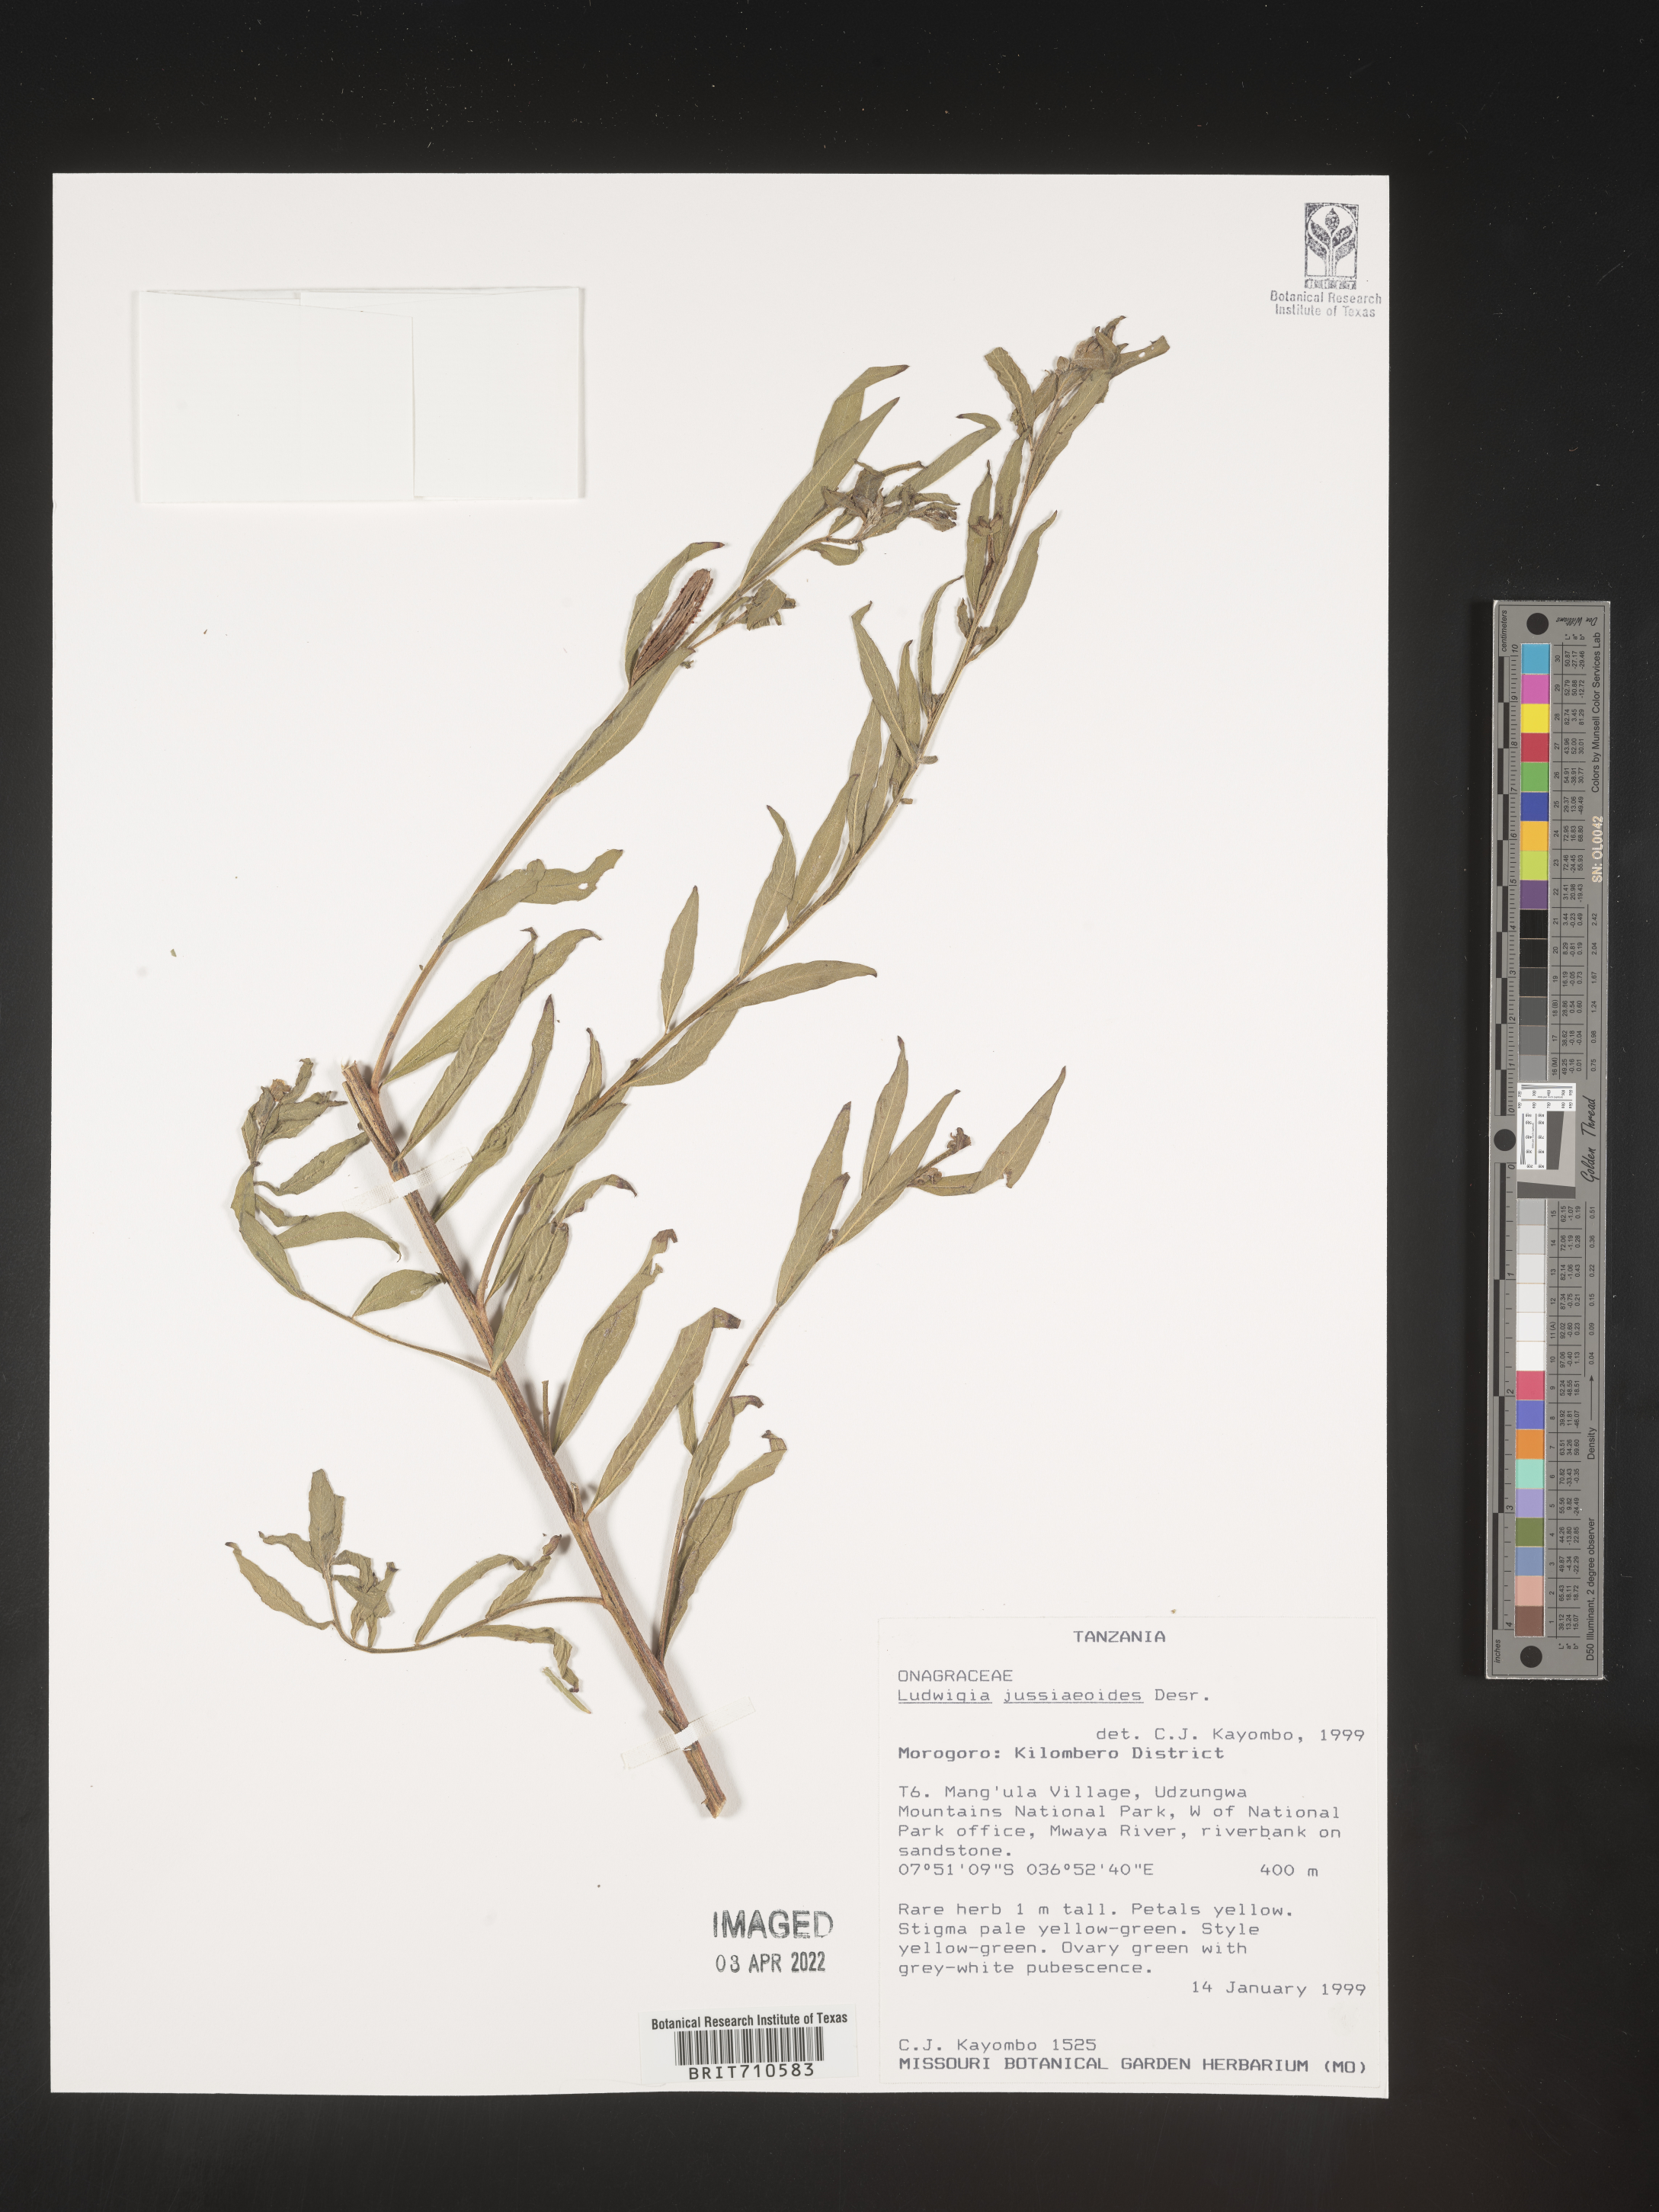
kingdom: Plantae
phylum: Tracheophyta
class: Magnoliopsida
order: Myrtales
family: Onagraceae
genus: Ludwigia
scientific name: Ludwigia
